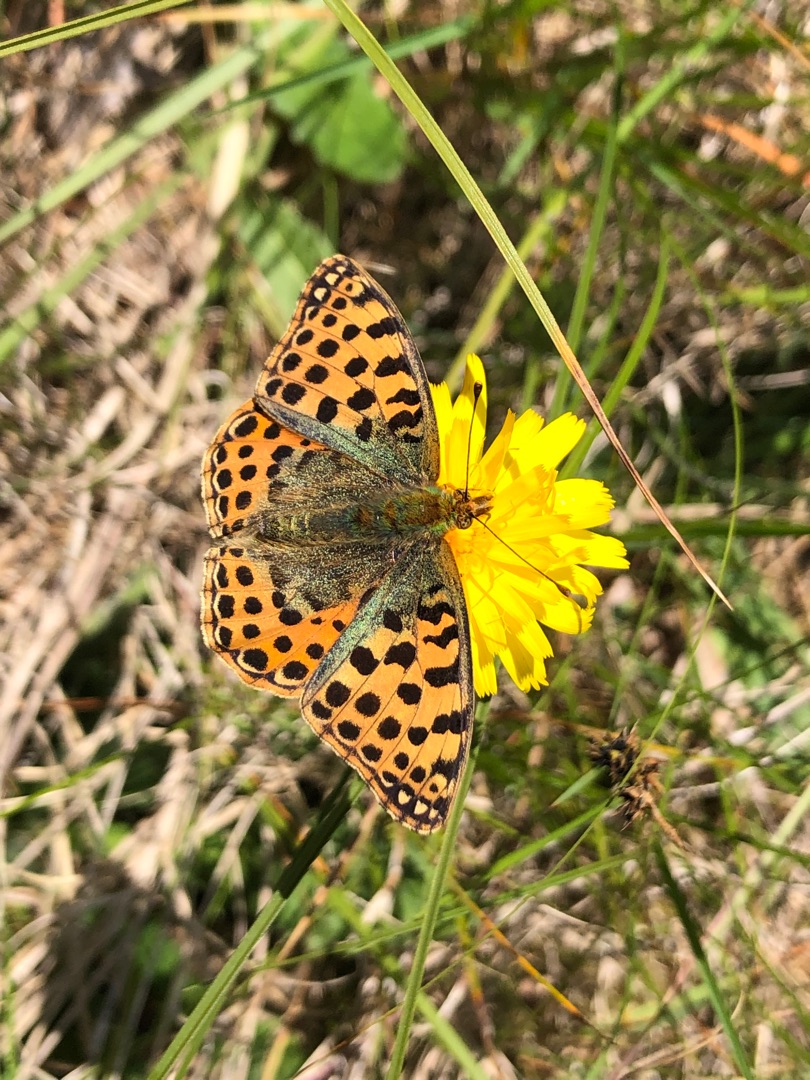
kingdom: Animalia
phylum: Arthropoda
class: Insecta
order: Lepidoptera
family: Nymphalidae
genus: Issoria
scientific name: Issoria lathonia
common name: Storplettet perlemorsommerfugl
